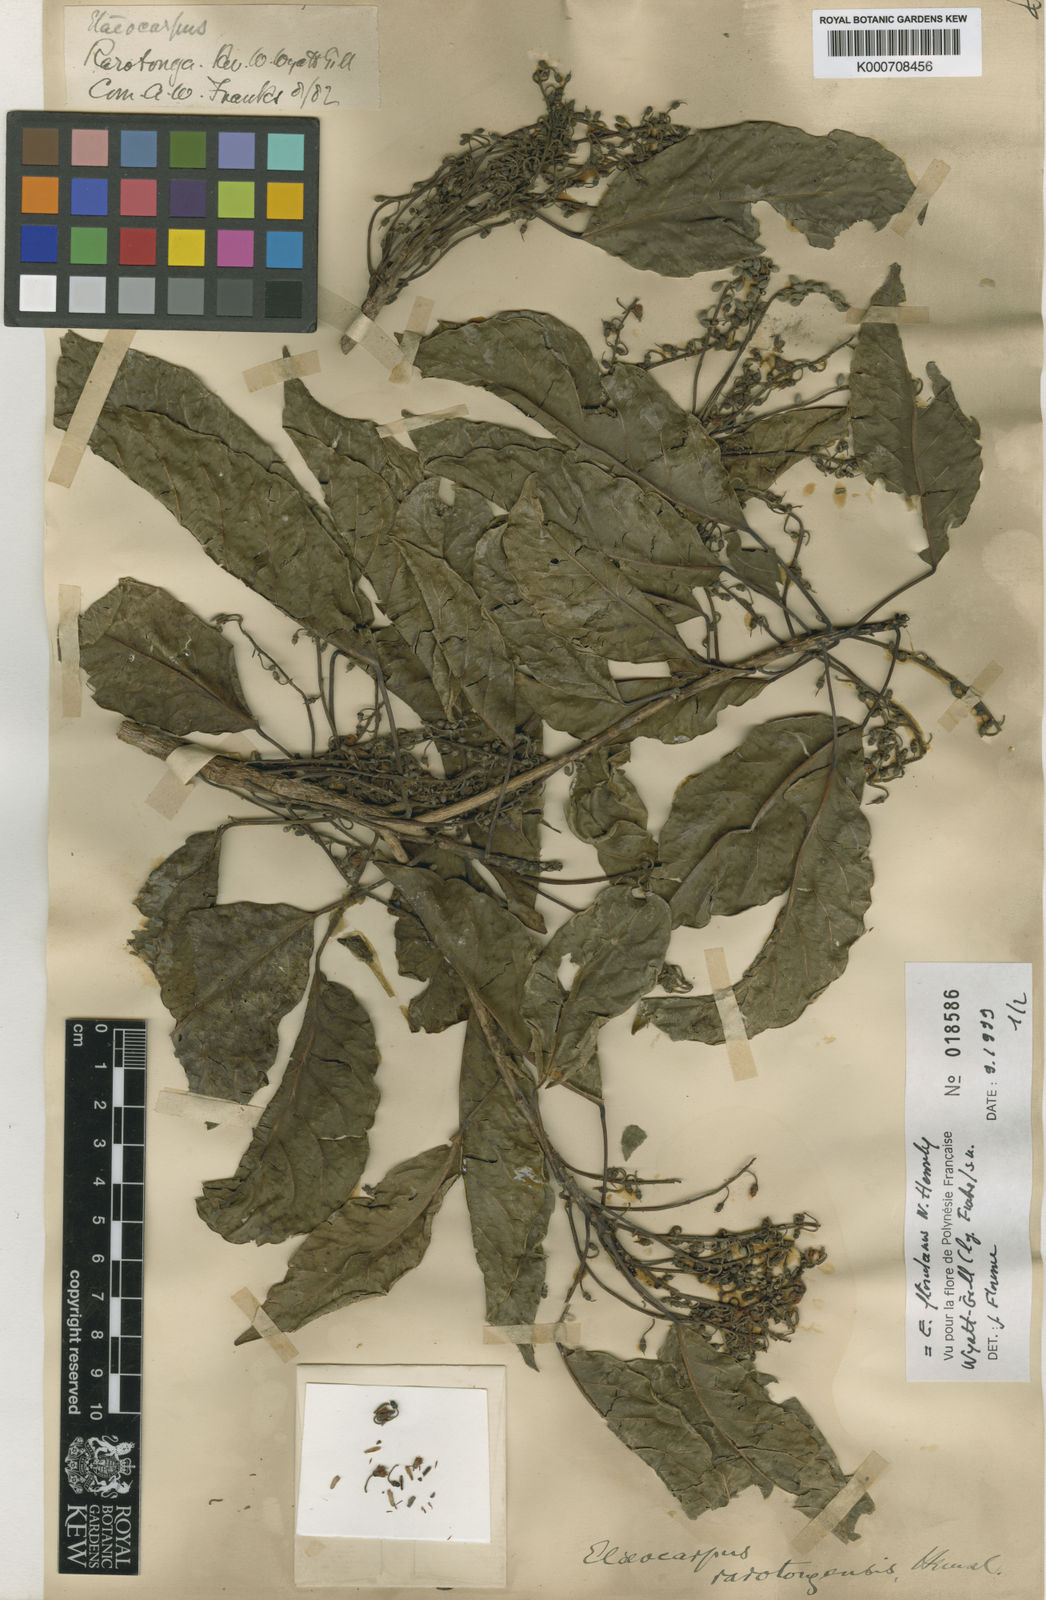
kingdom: Plantae
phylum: Tracheophyta
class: Magnoliopsida
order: Oxalidales
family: Elaeocarpaceae
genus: Elaeocarpus
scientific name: Elaeocarpus floridanus
